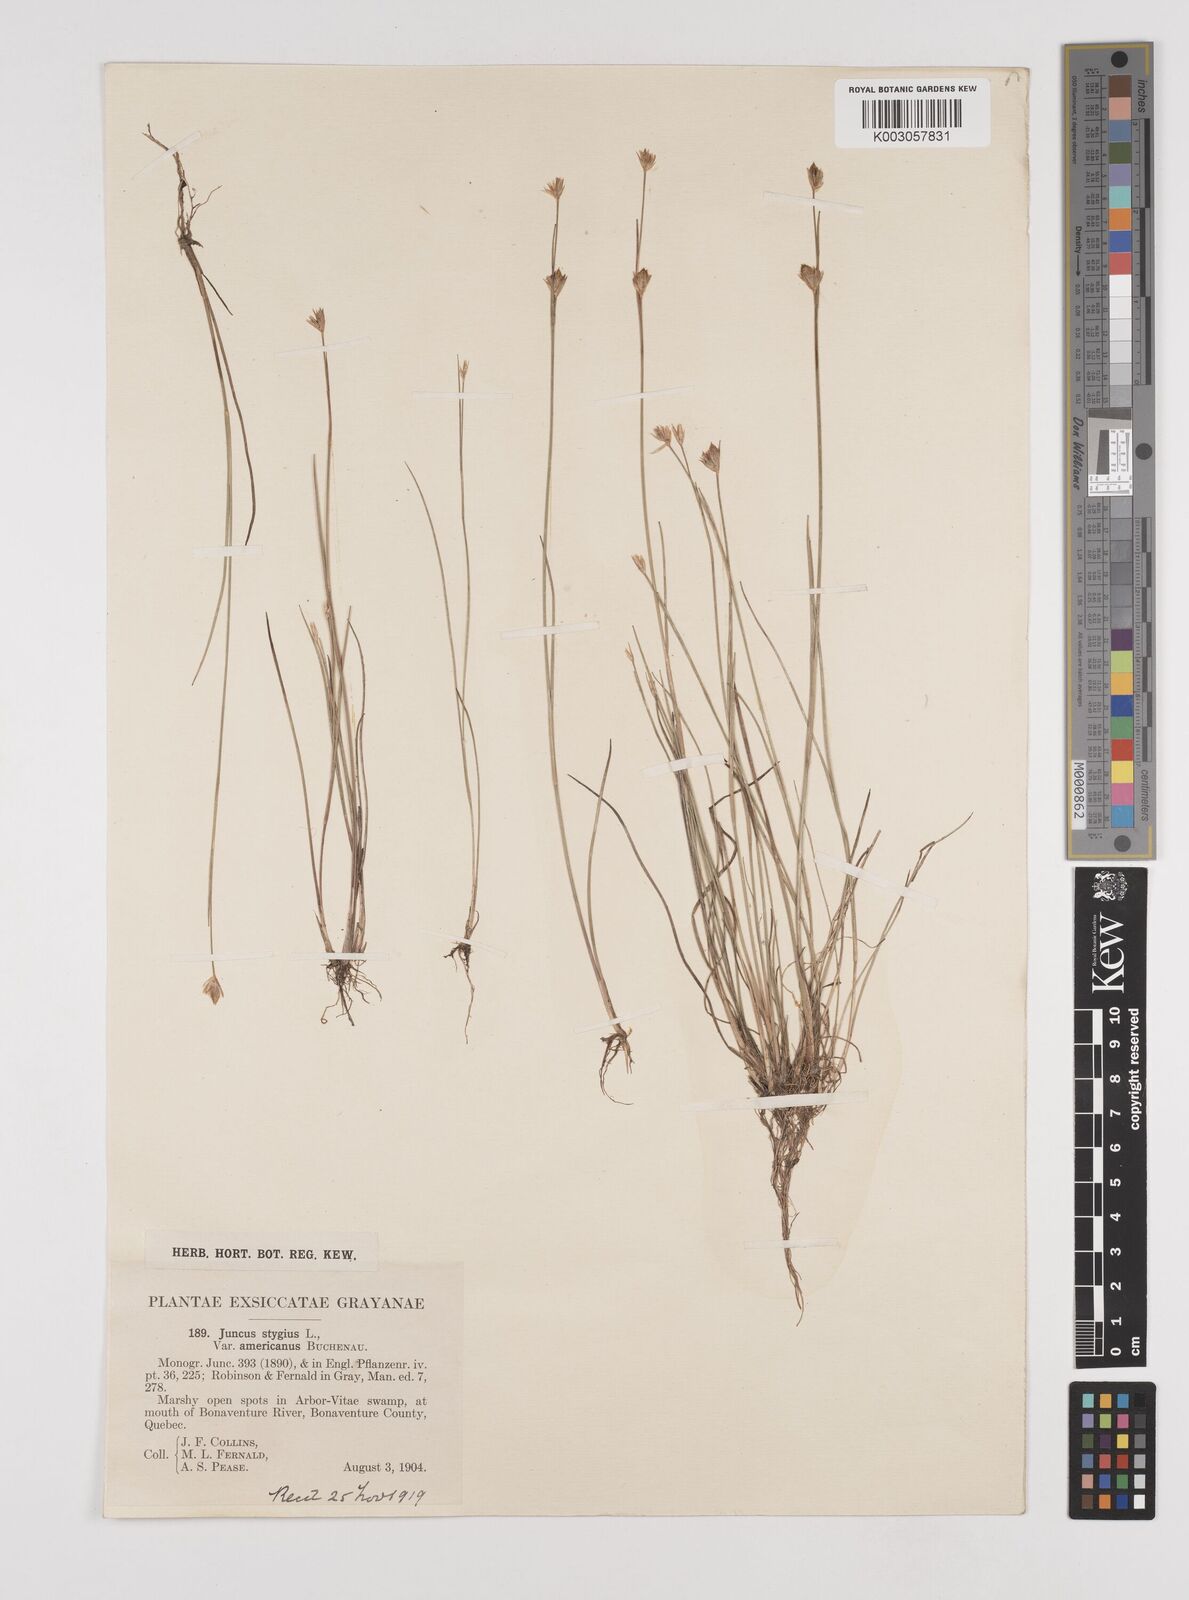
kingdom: Plantae
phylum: Tracheophyta
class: Liliopsida
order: Poales
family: Juncaceae
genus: Juncus
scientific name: Juncus stygius
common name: Bog rush
